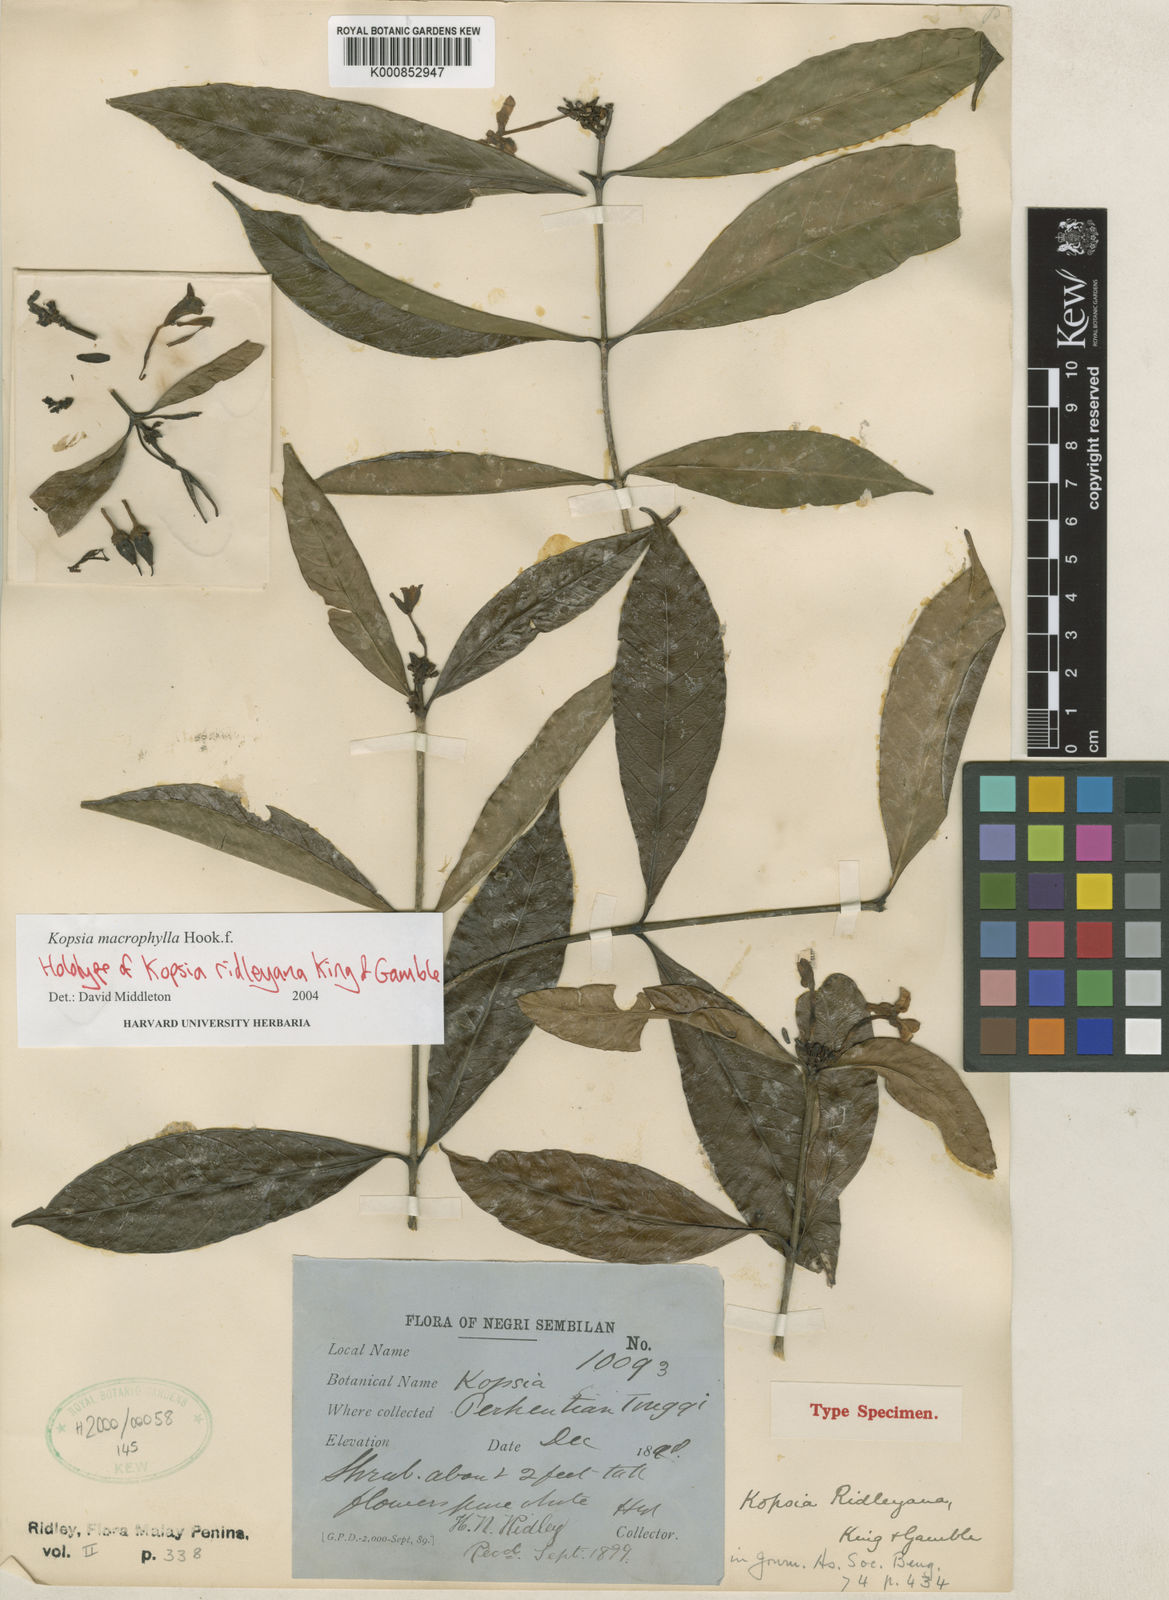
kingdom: Plantae
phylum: Tracheophyta
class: Magnoliopsida
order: Gentianales
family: Apocynaceae
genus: Kopsia
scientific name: Kopsia macrophylla
